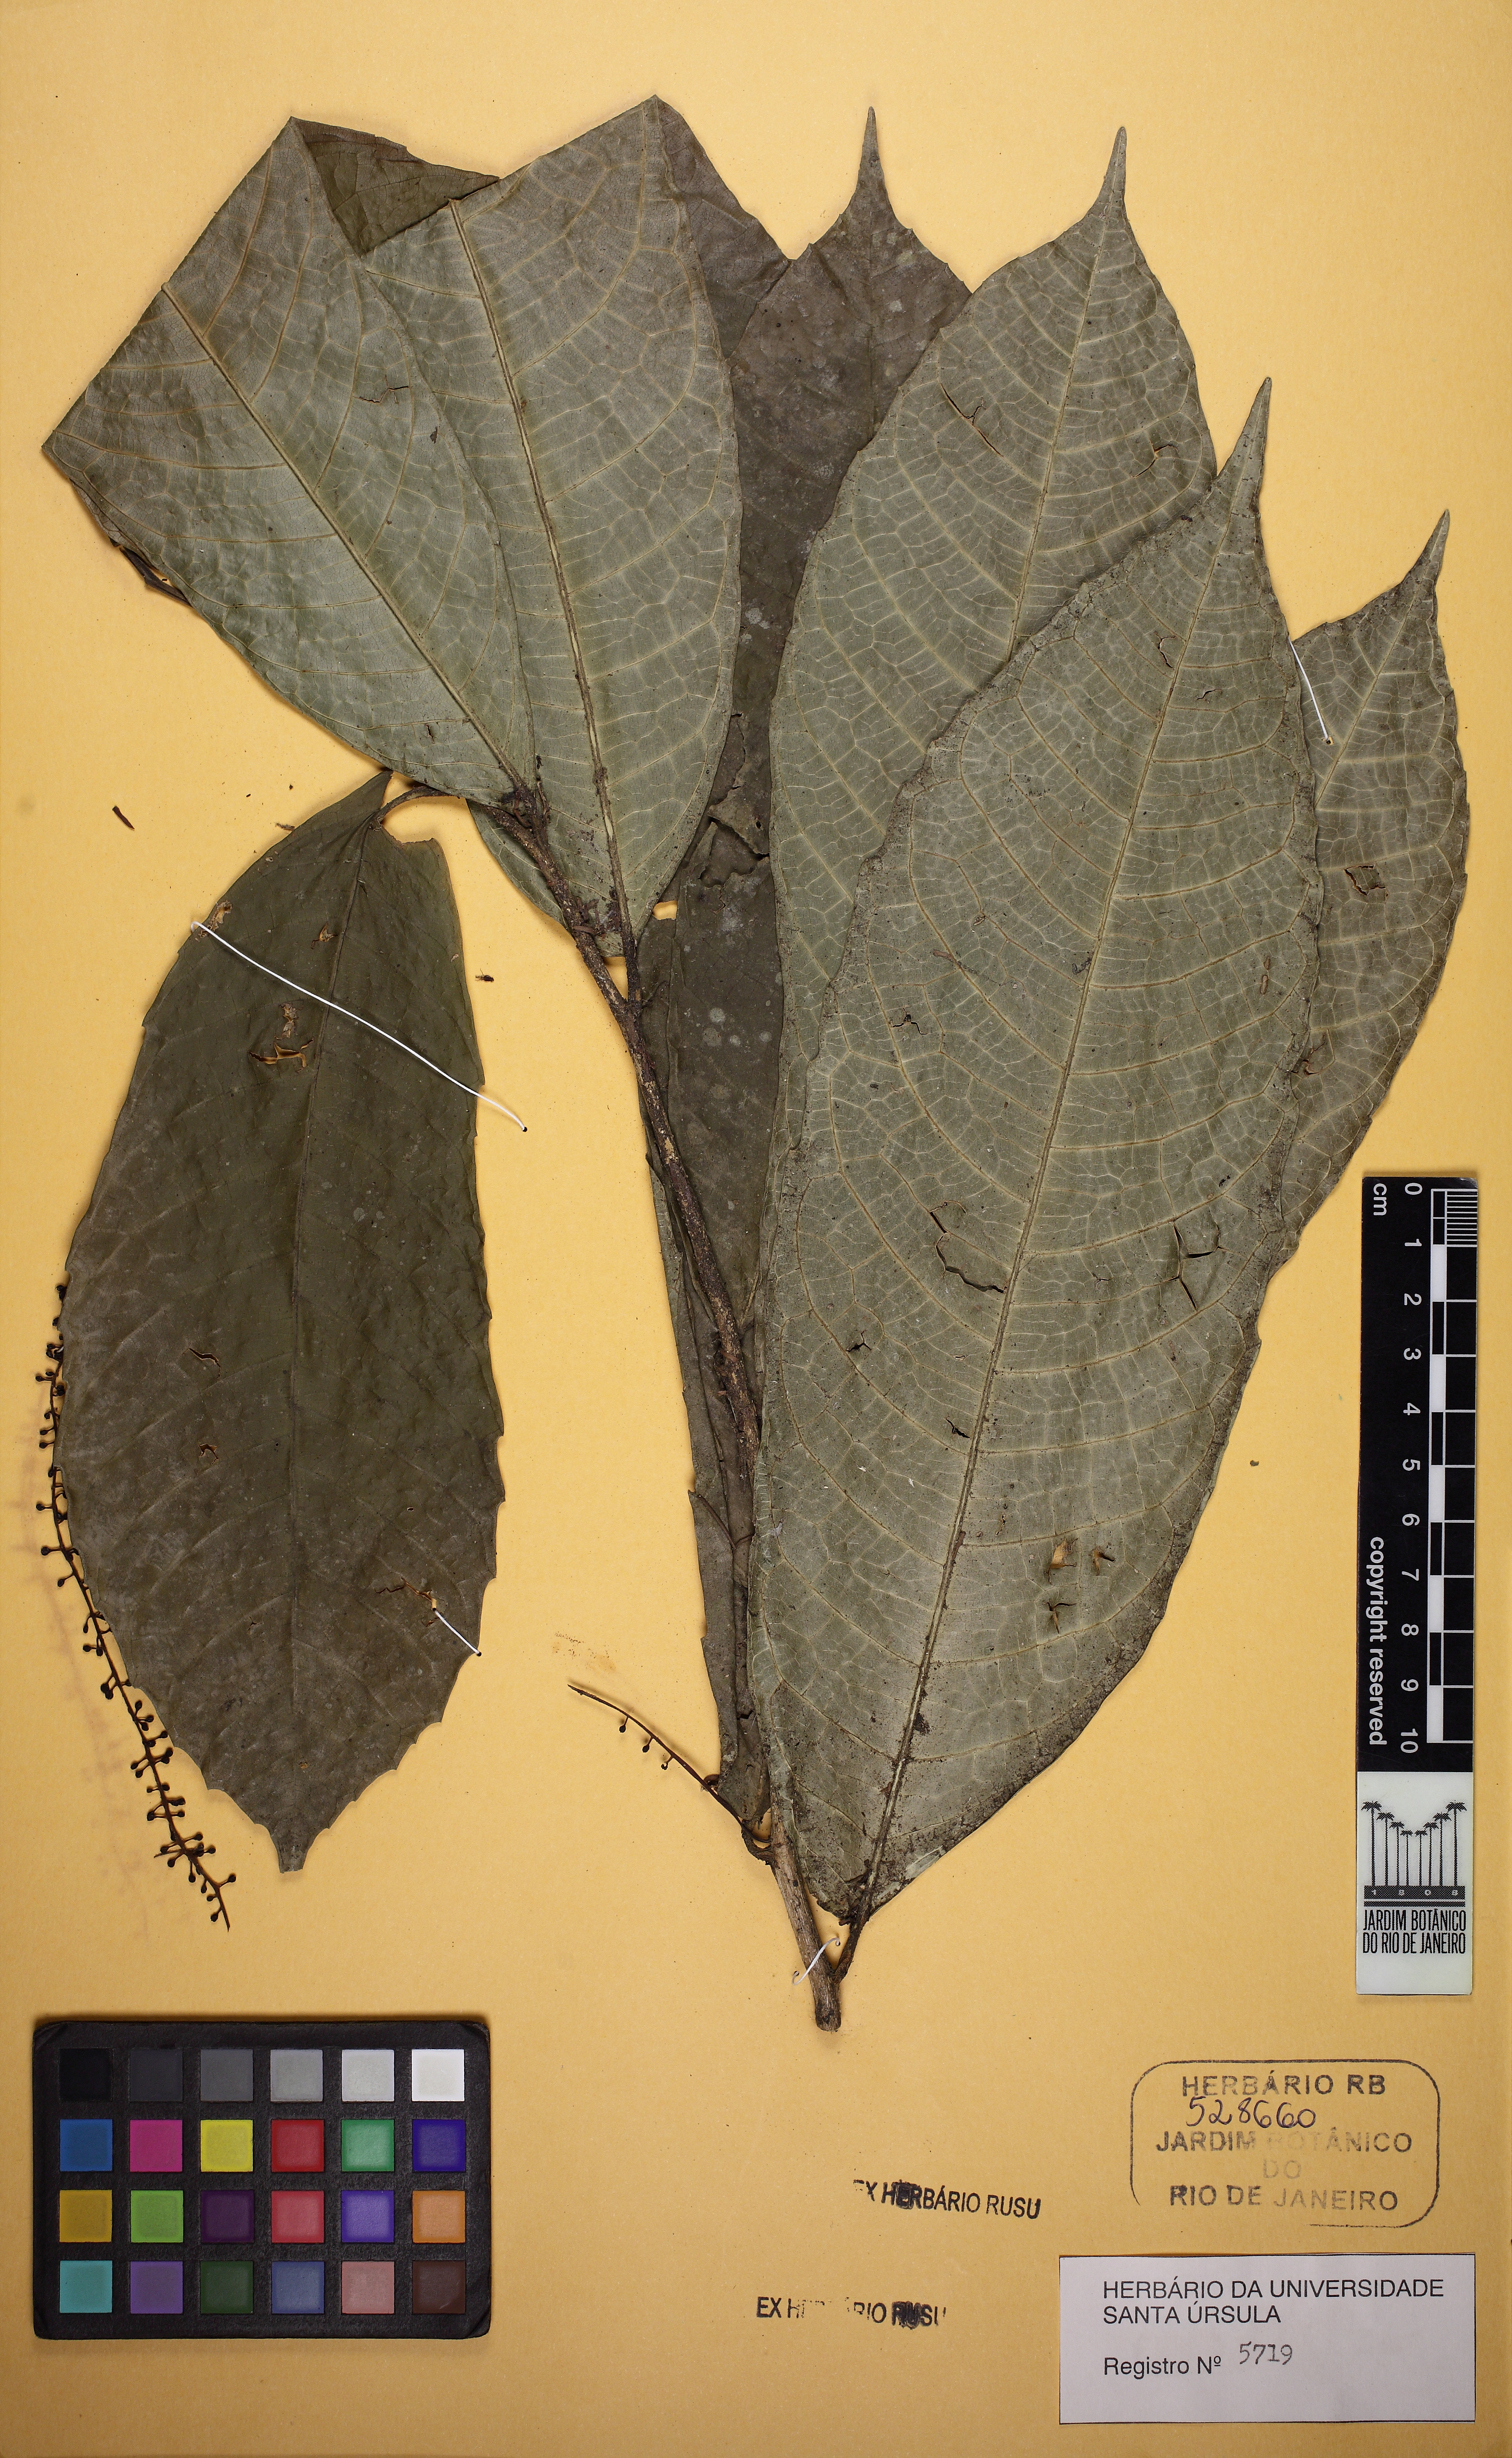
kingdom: Plantae
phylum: Tracheophyta
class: Magnoliopsida
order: Rosales
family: Moraceae
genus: Sorocea
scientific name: Sorocea hilarii
